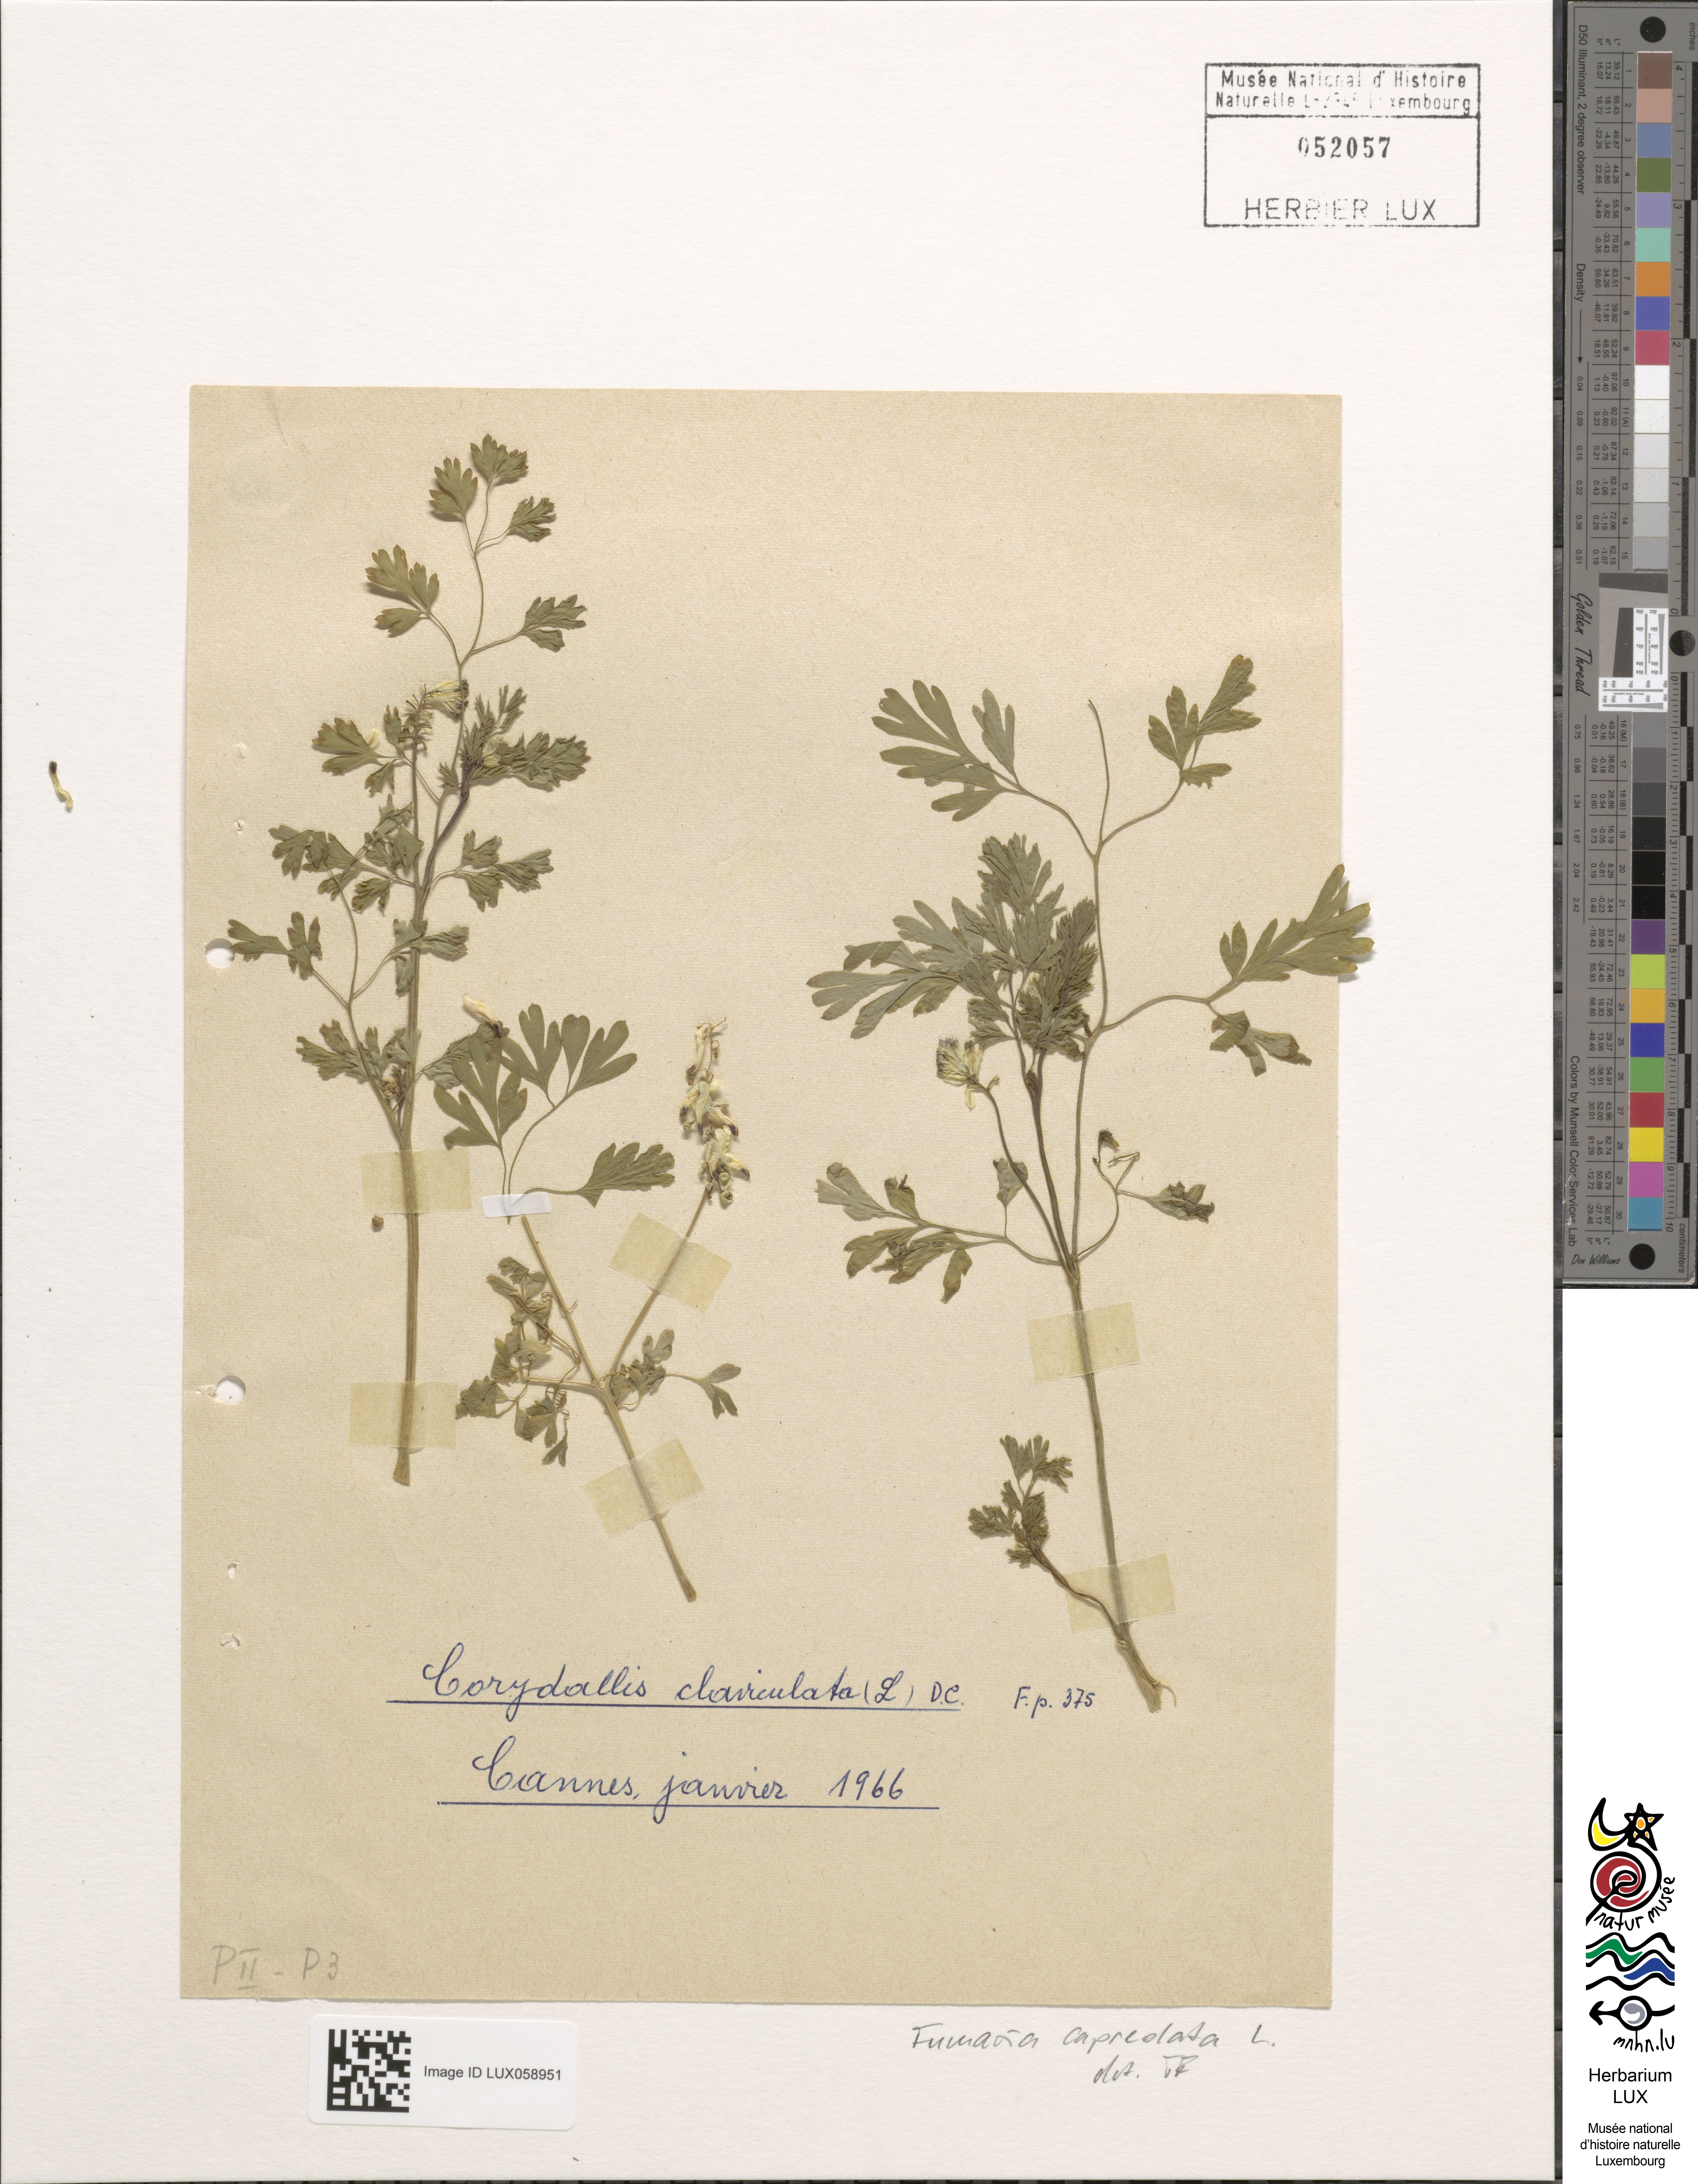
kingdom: Plantae
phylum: Tracheophyta
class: Magnoliopsida
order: Ranunculales
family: Papaveraceae
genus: Fumaria
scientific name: Fumaria capreolata
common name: White ramping-fumitory
